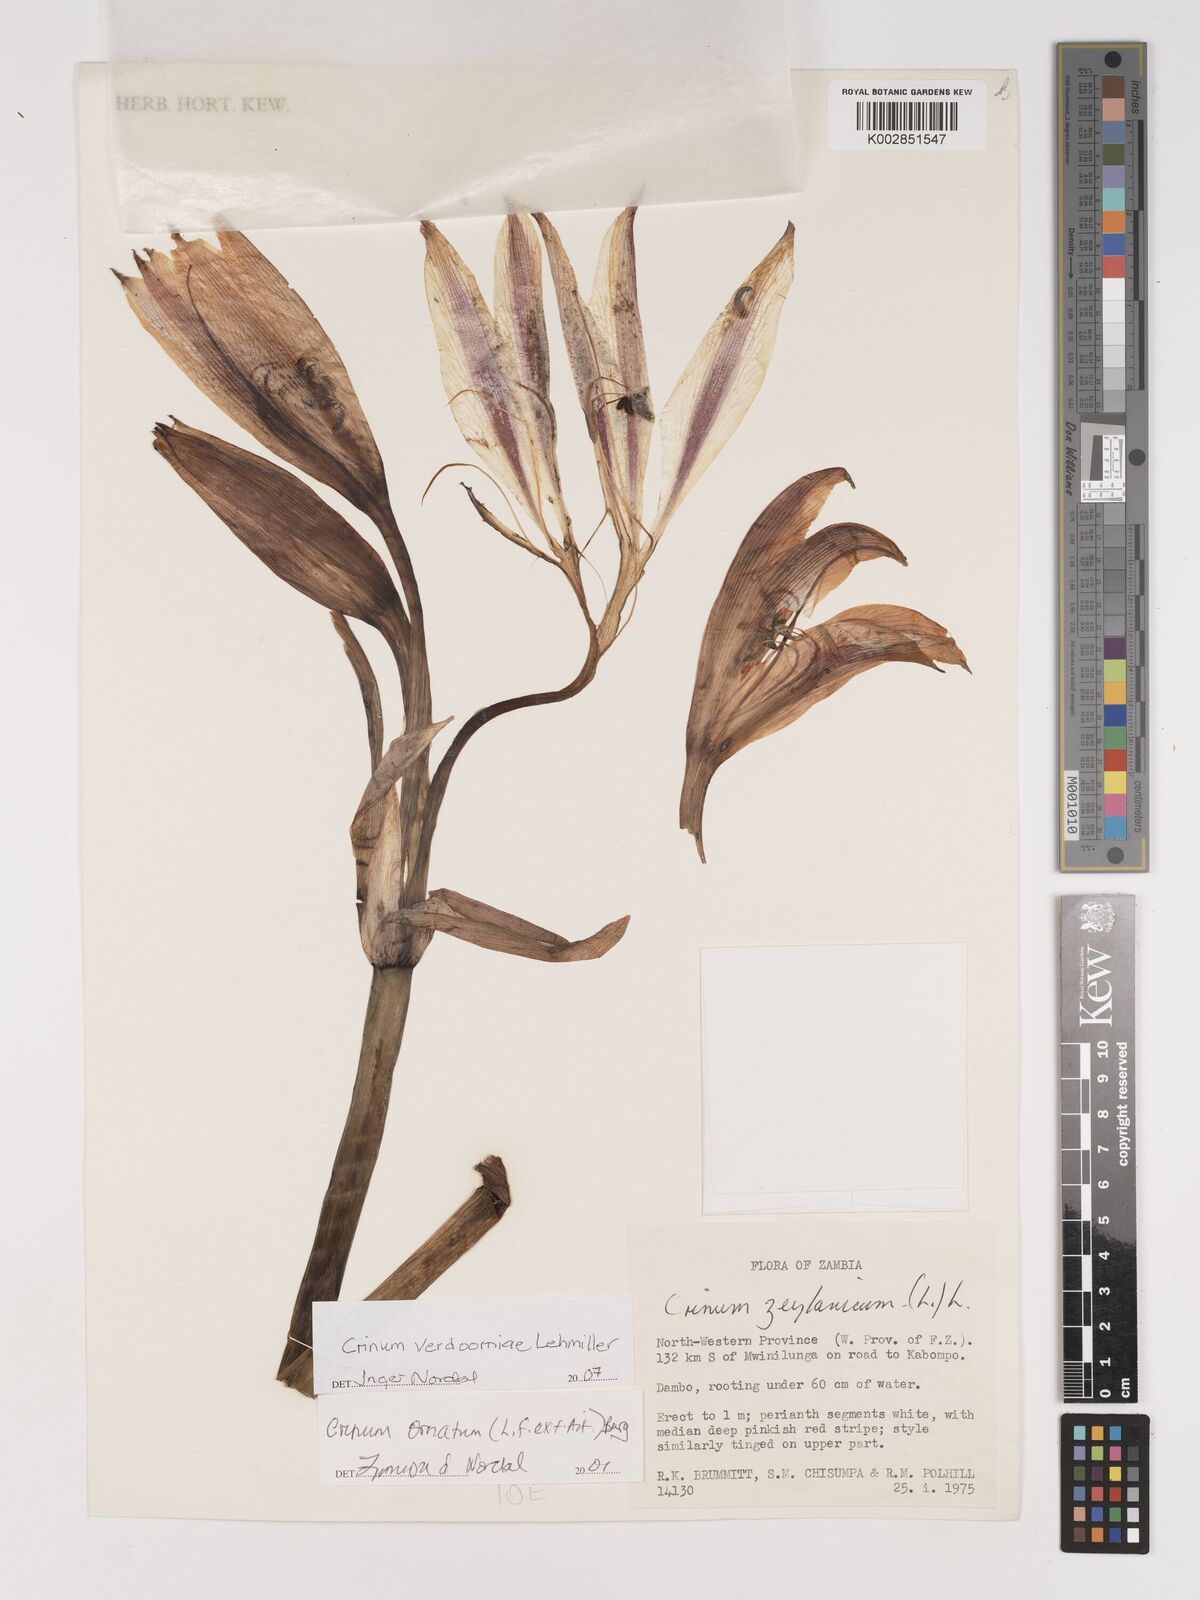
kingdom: Plantae
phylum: Tracheophyta
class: Liliopsida
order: Asparagales
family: Amaryllidaceae
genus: Crinum
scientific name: Crinum verdoorniae
